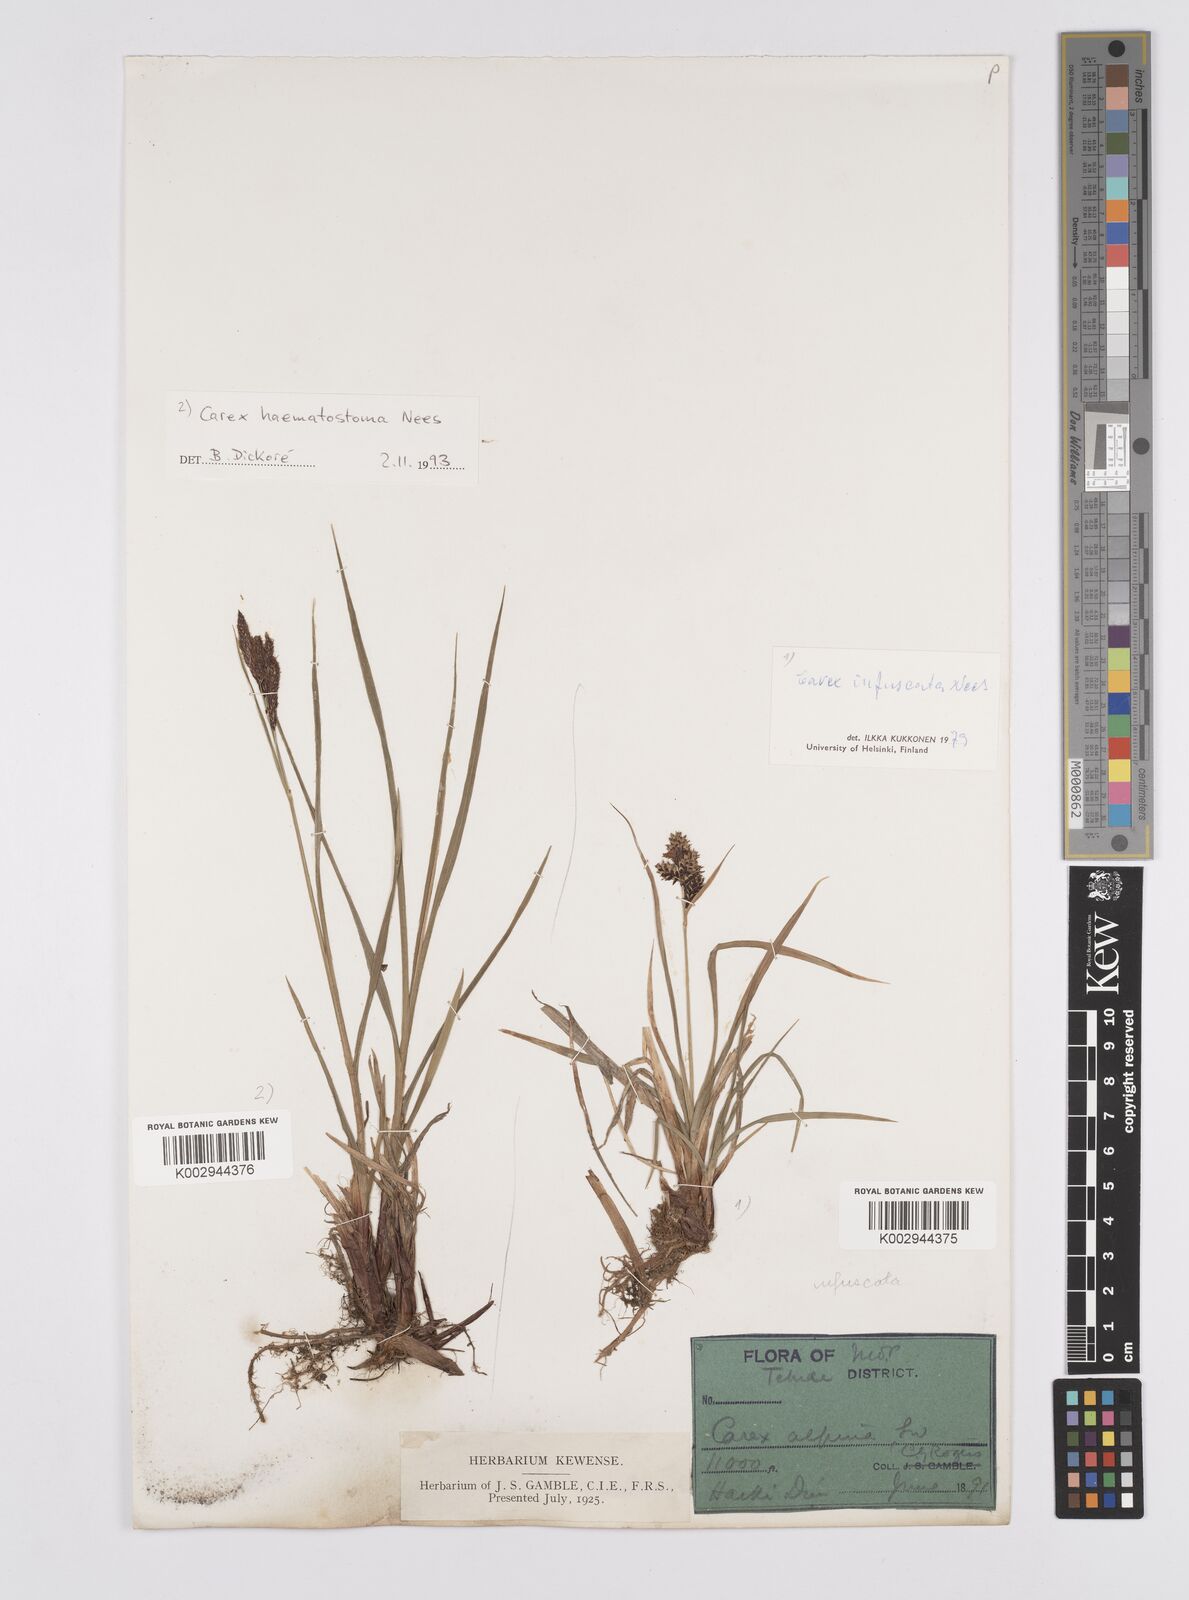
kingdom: Plantae
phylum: Tracheophyta
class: Liliopsida
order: Poales
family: Cyperaceae
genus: Carex
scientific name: Carex norvegica
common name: Close-headed alpine-sedge
